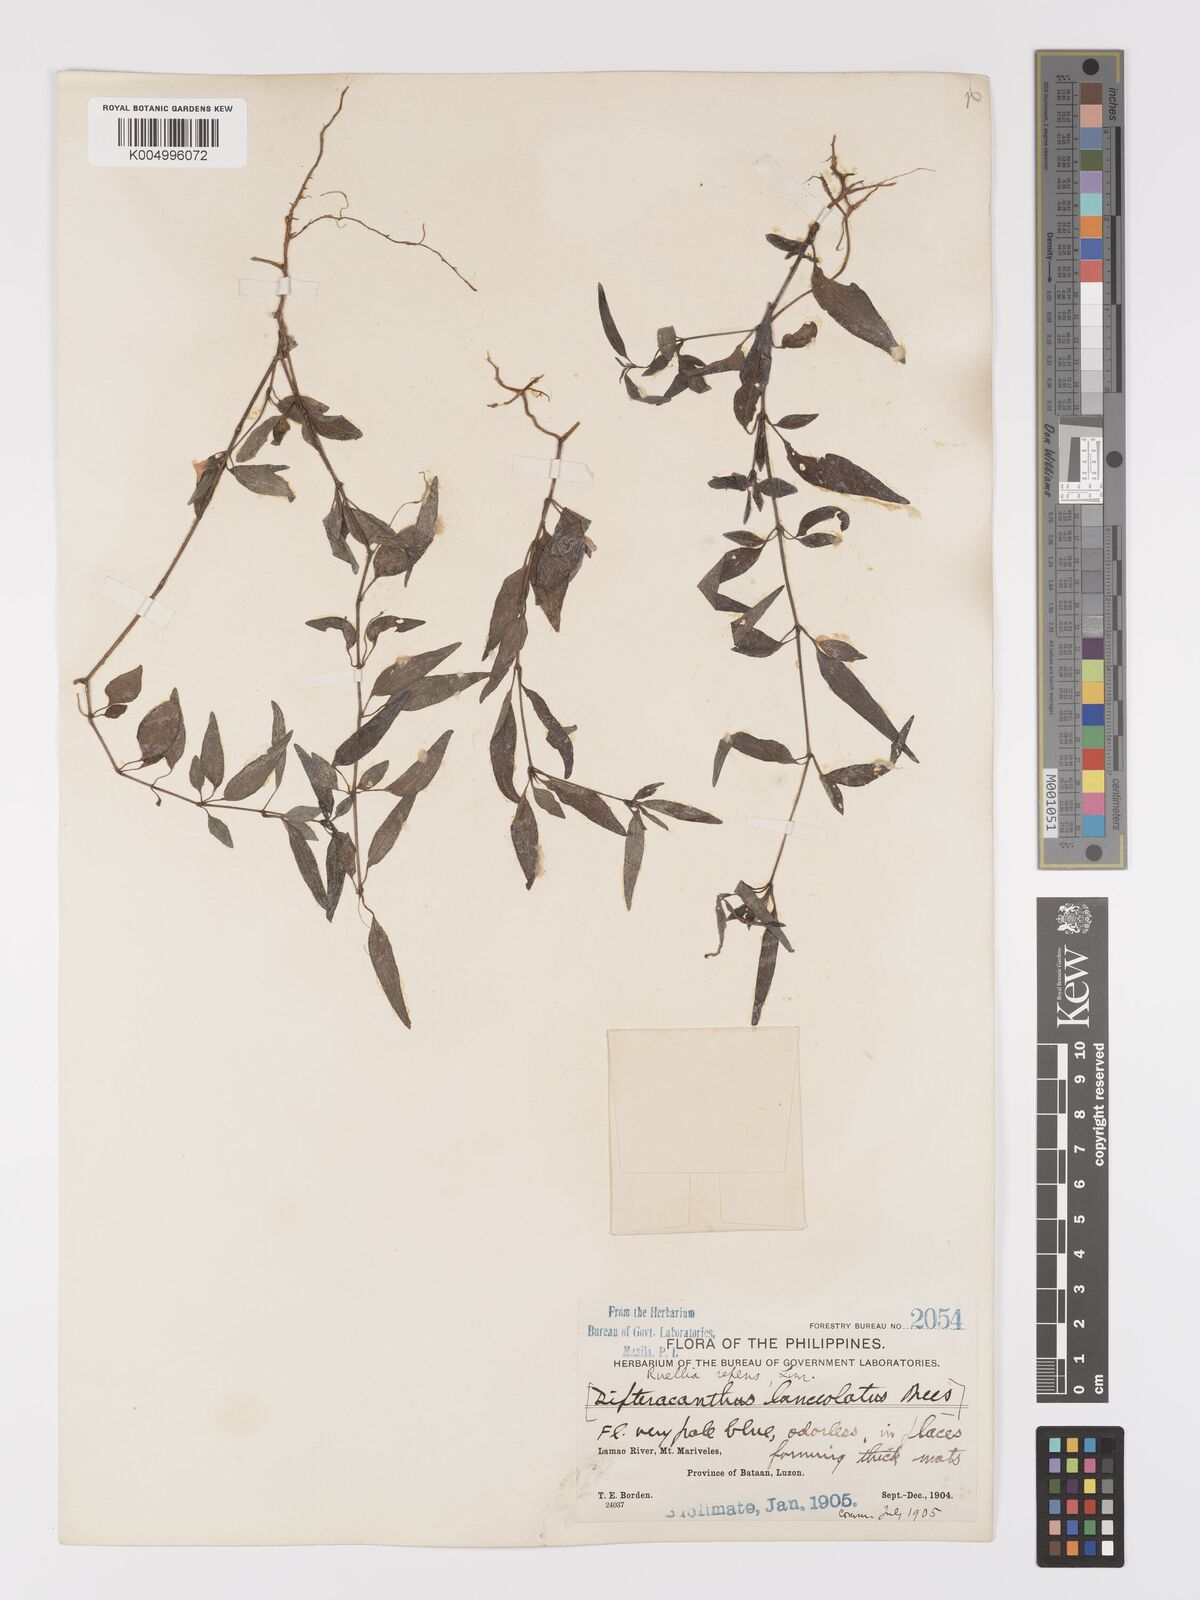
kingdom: Plantae
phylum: Tracheophyta
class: Magnoliopsida
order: Lamiales
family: Acanthaceae
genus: Ruellia
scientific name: Ruellia
